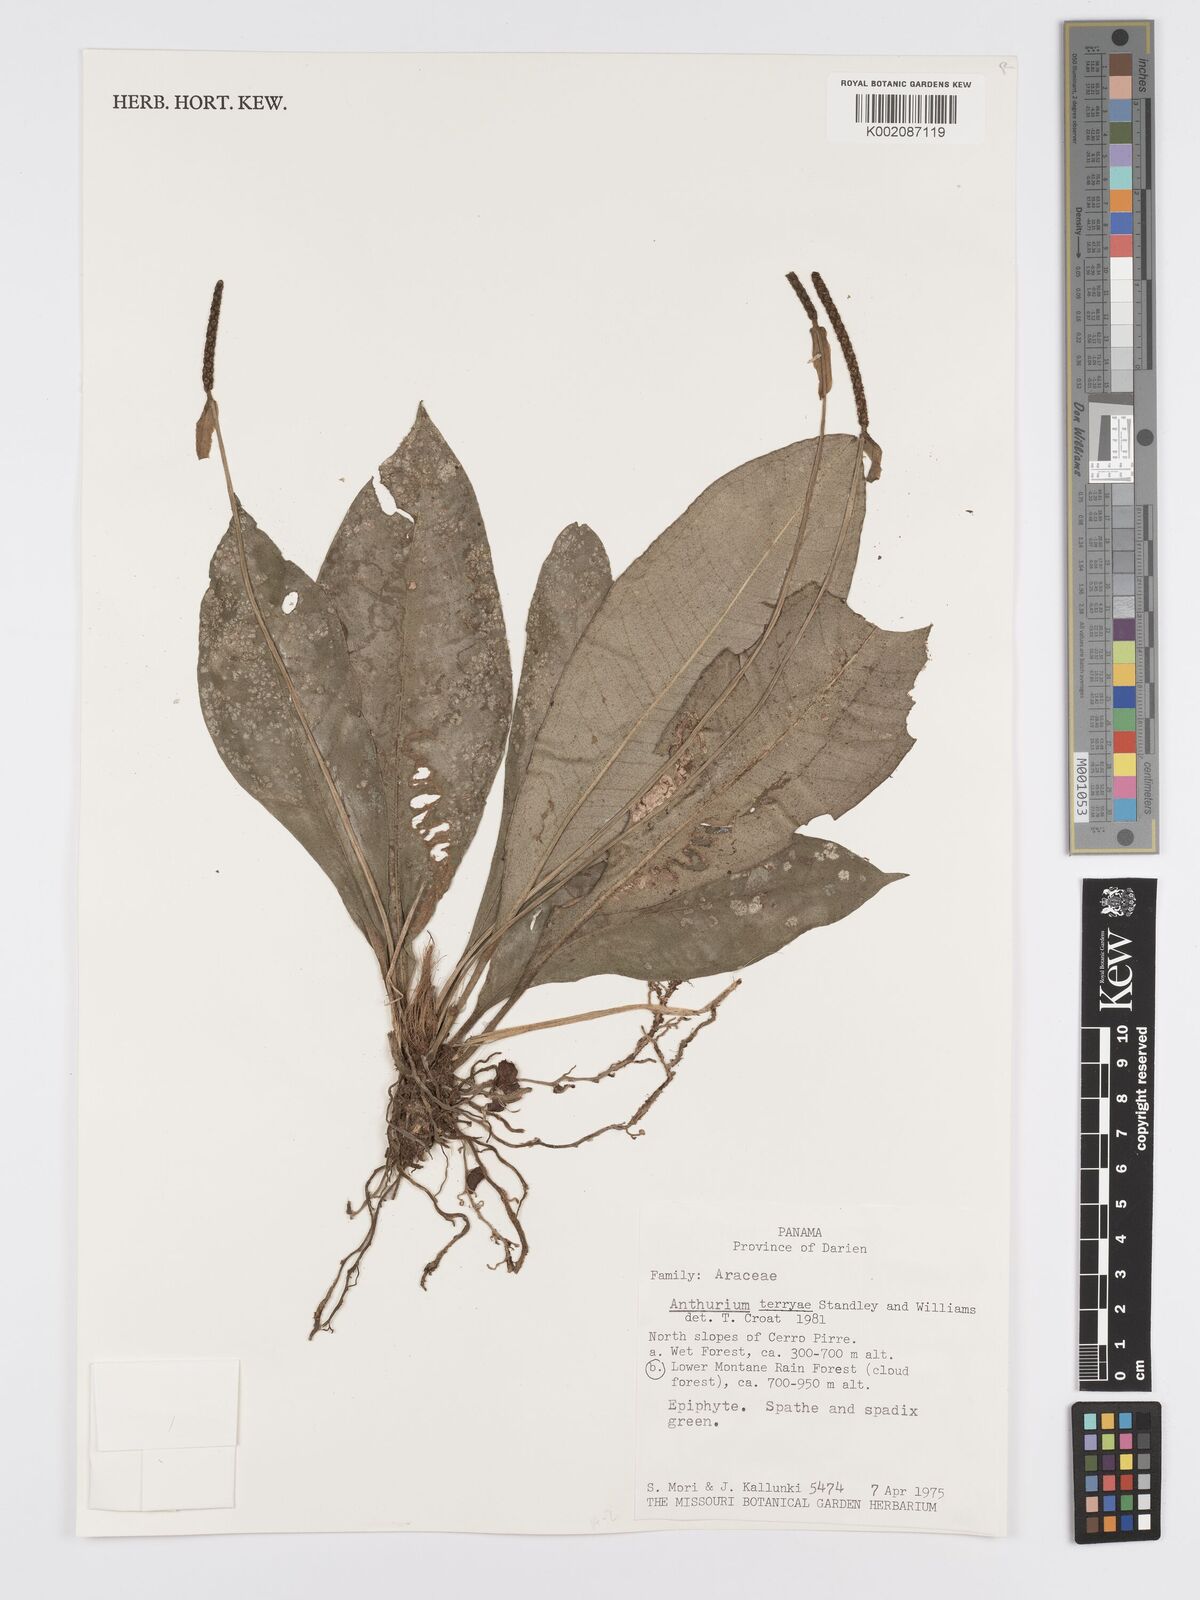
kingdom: Plantae
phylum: Tracheophyta
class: Liliopsida
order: Alismatales
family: Araceae
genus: Anthurium
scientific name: Anthurium terryae
